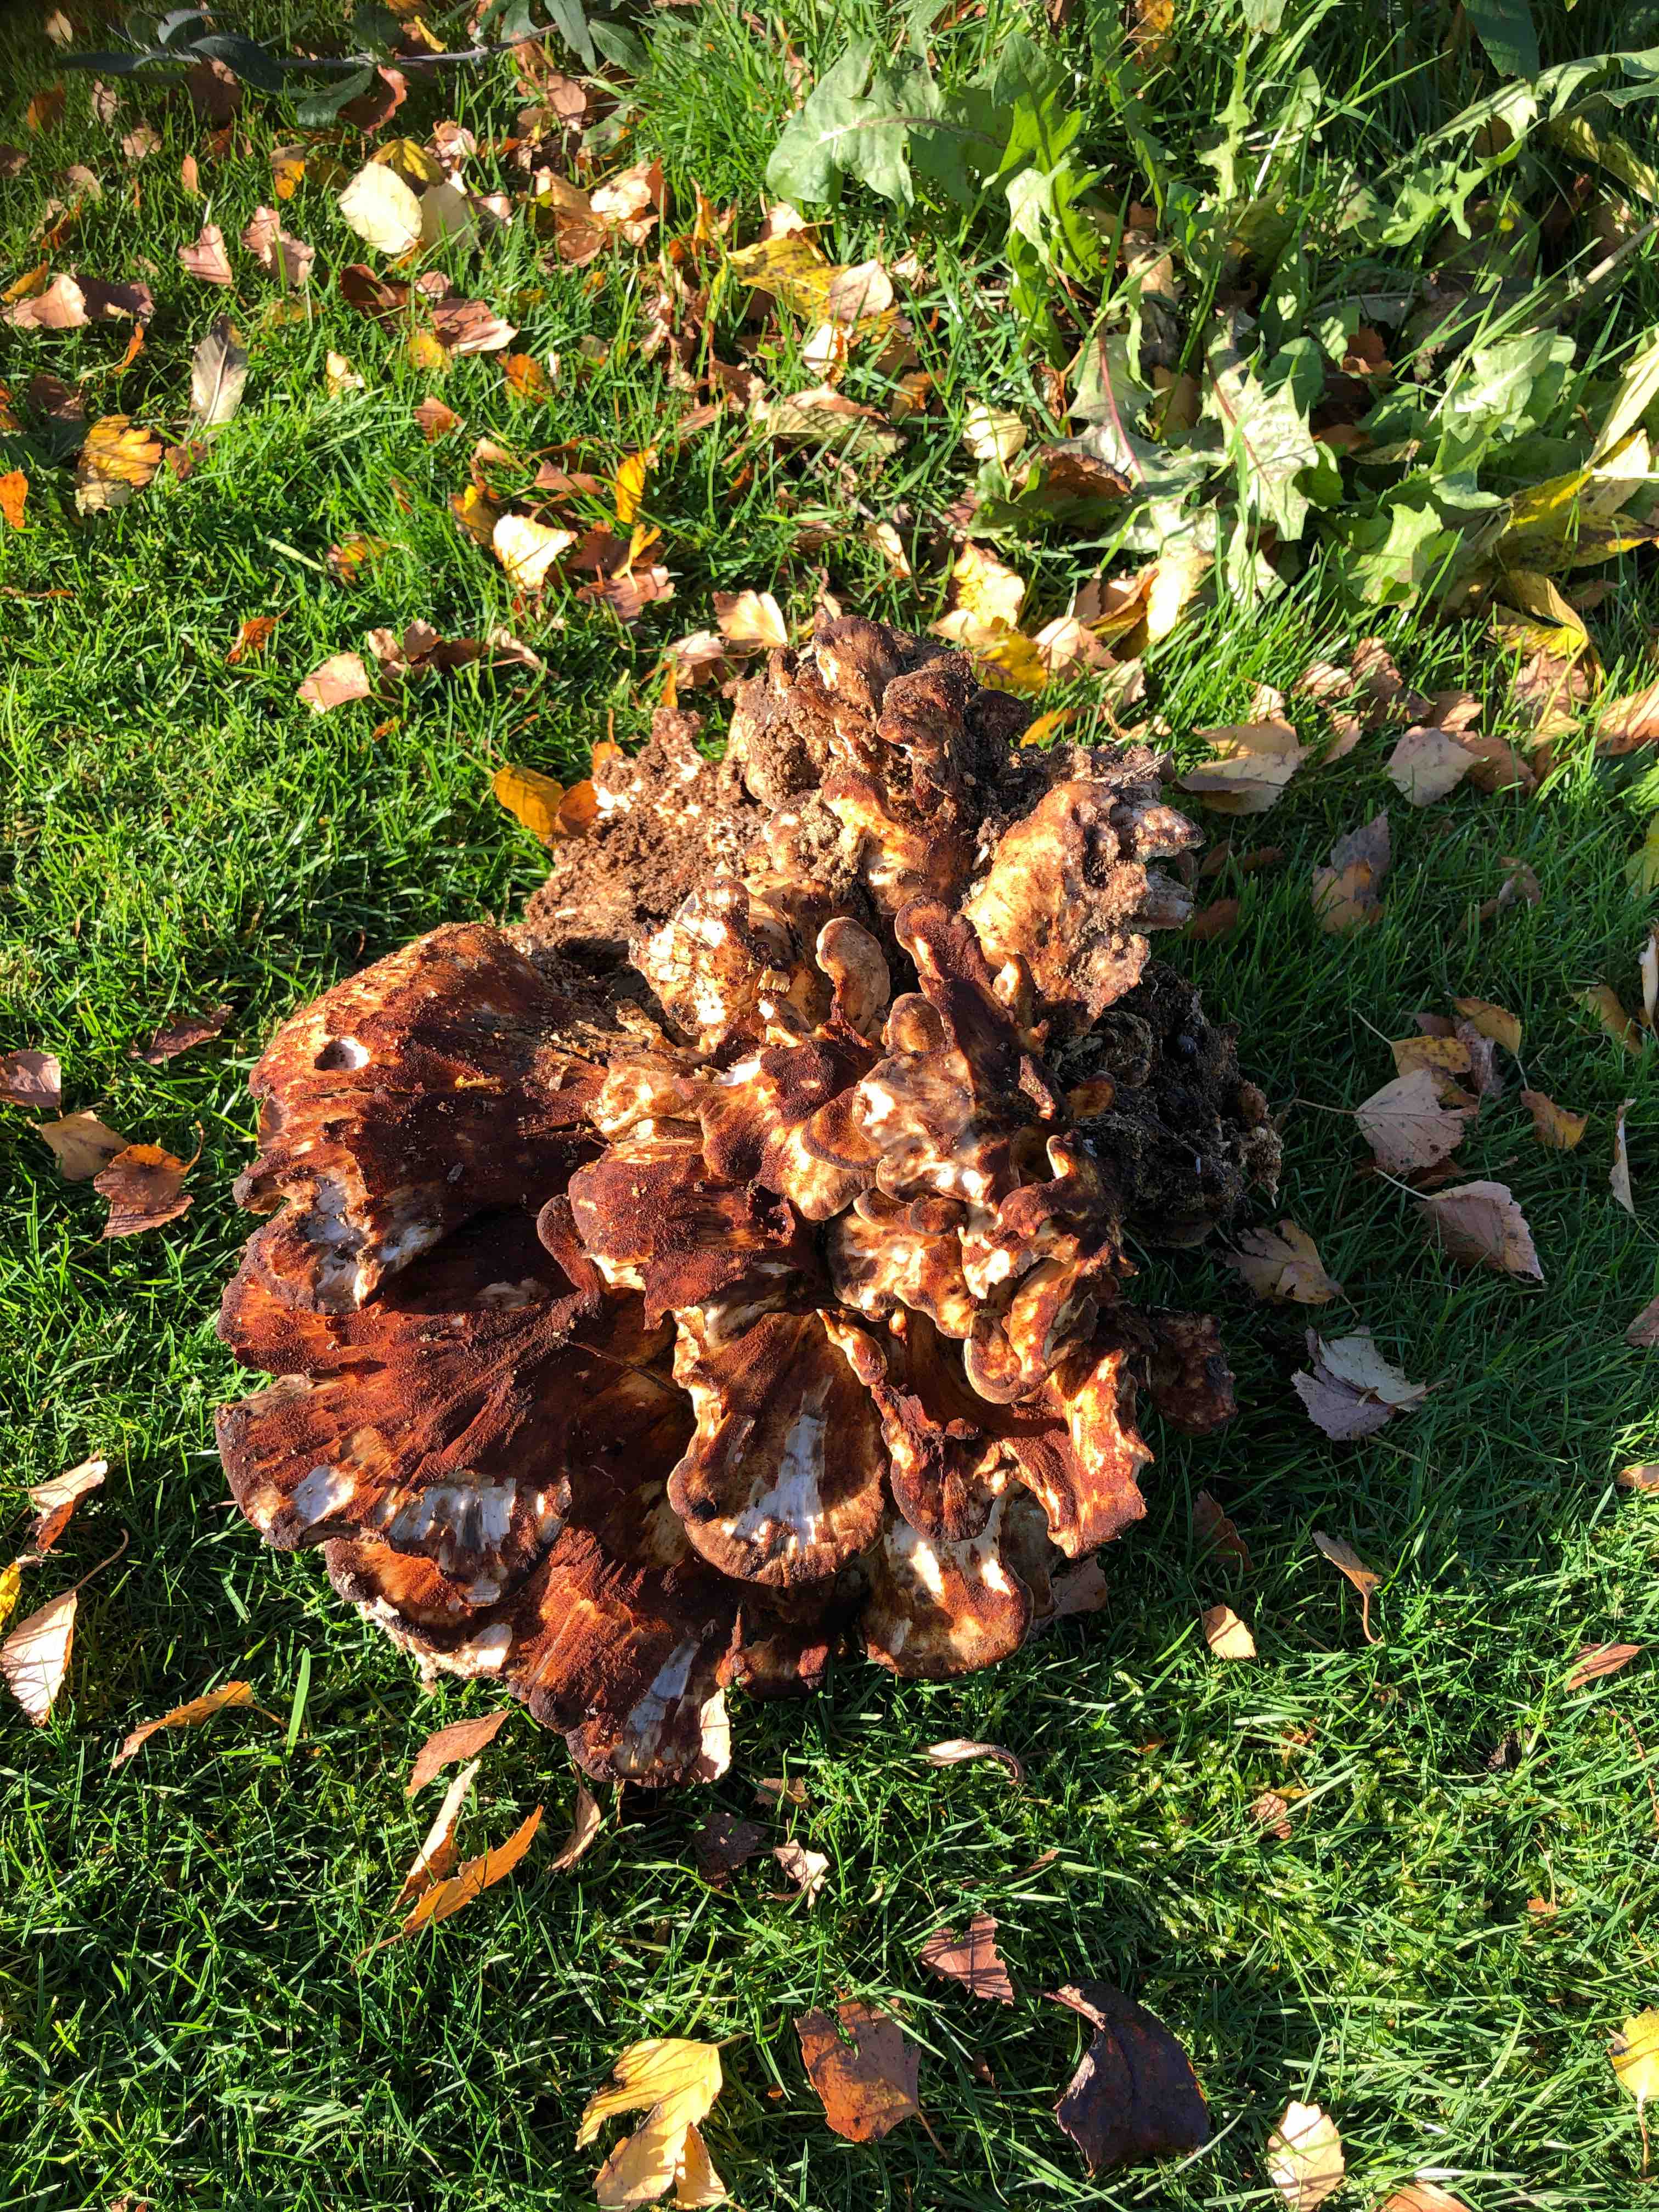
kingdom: Fungi
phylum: Basidiomycota
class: Agaricomycetes
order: Polyporales
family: Meripilaceae
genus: Meripilus
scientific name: Meripilus giganteus
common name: kæmpeporesvamp
